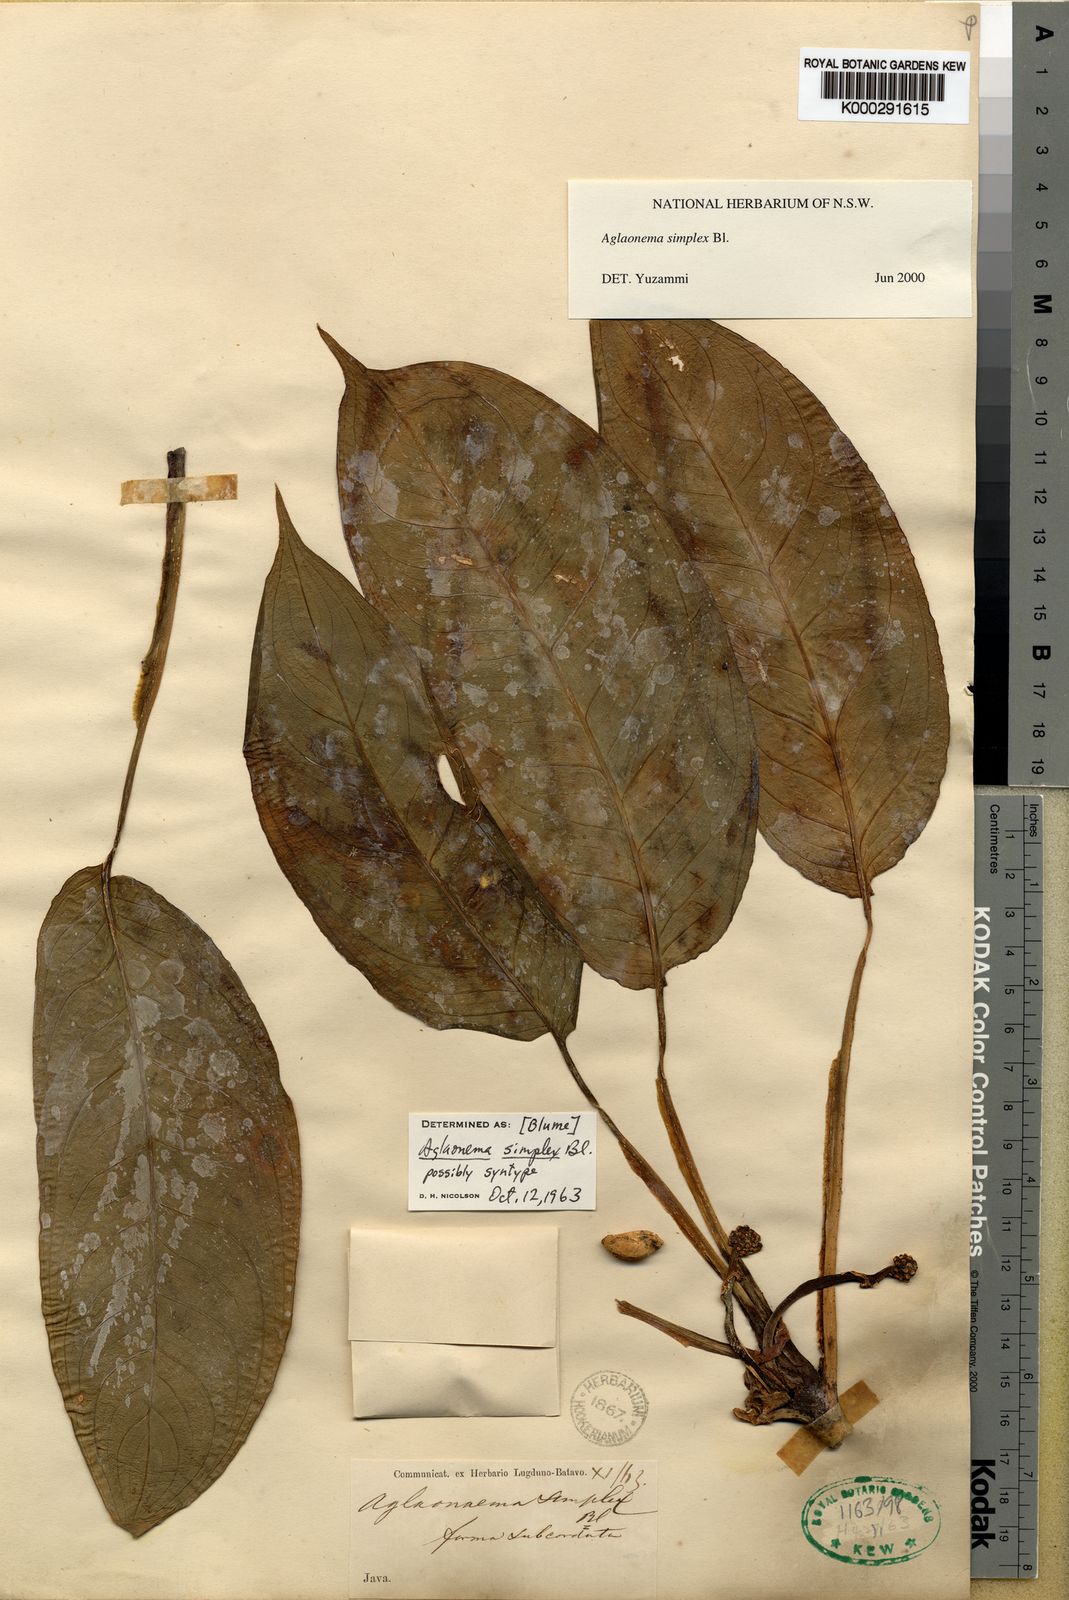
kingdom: Plantae
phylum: Tracheophyta
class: Liliopsida
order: Alismatales
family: Araceae
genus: Aglaonema
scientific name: Aglaonema simplex
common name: Malayan-sword
